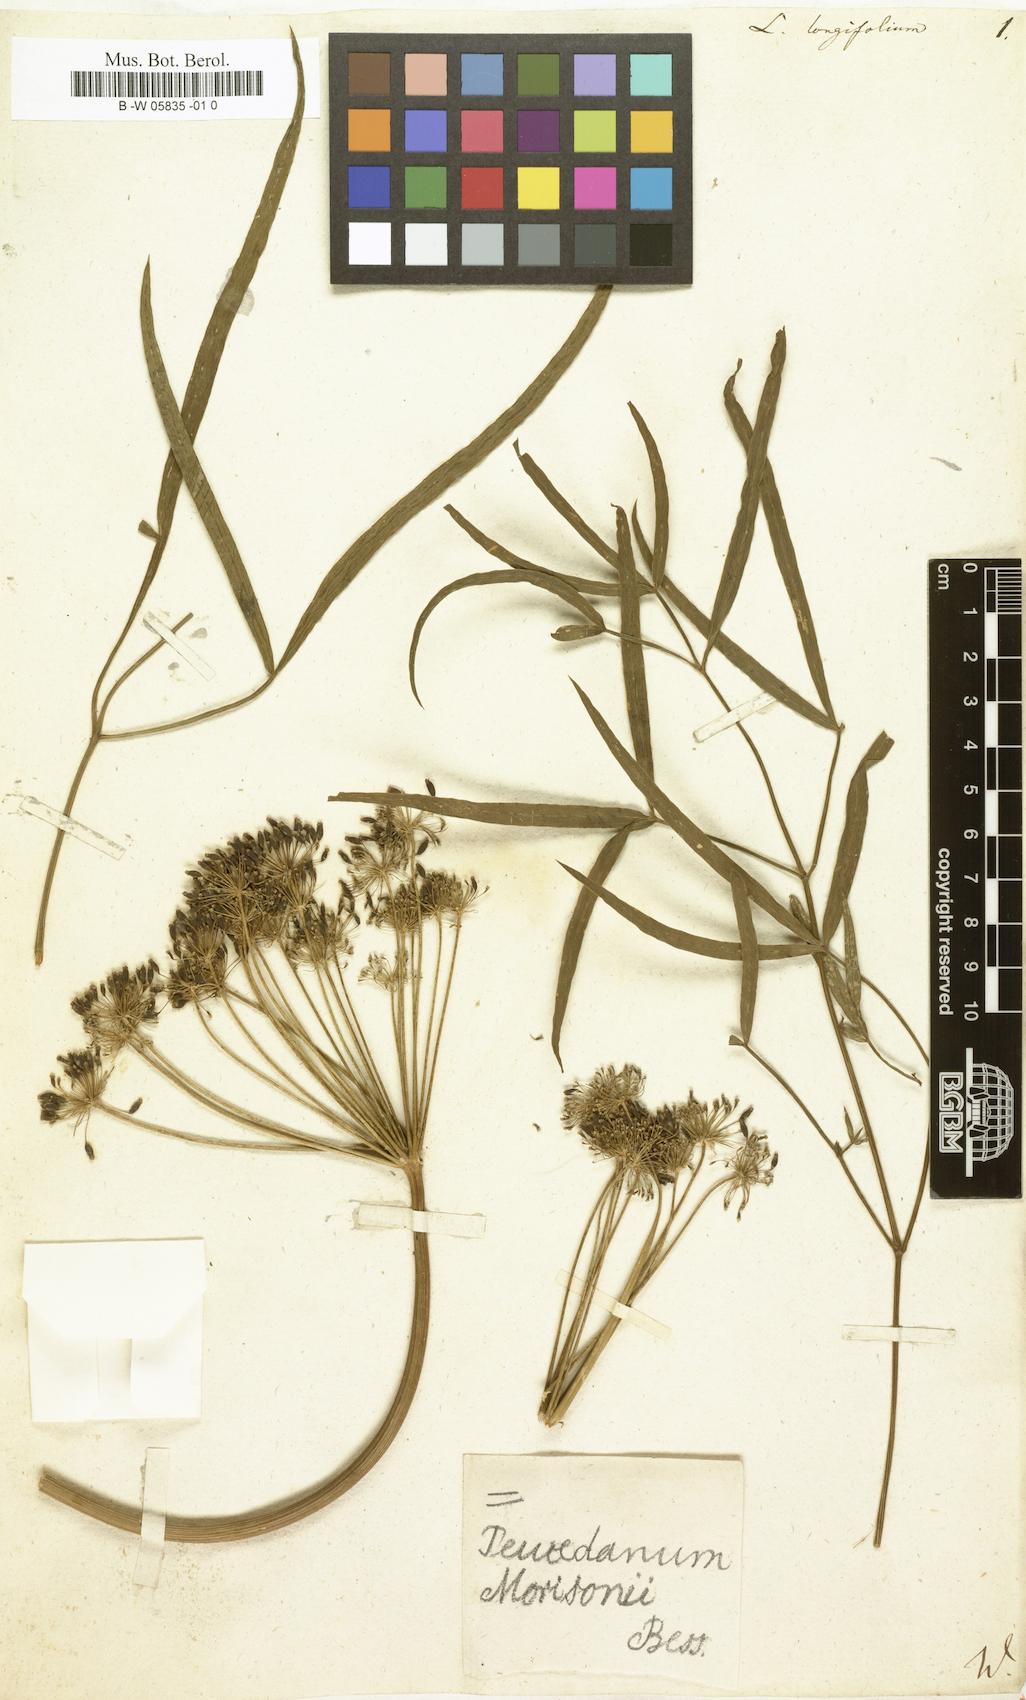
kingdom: Plantae
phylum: Tracheophyta
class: Magnoliopsida
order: Apiales
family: Apiaceae
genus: Peucedanum
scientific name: Peucedanum morisonii
